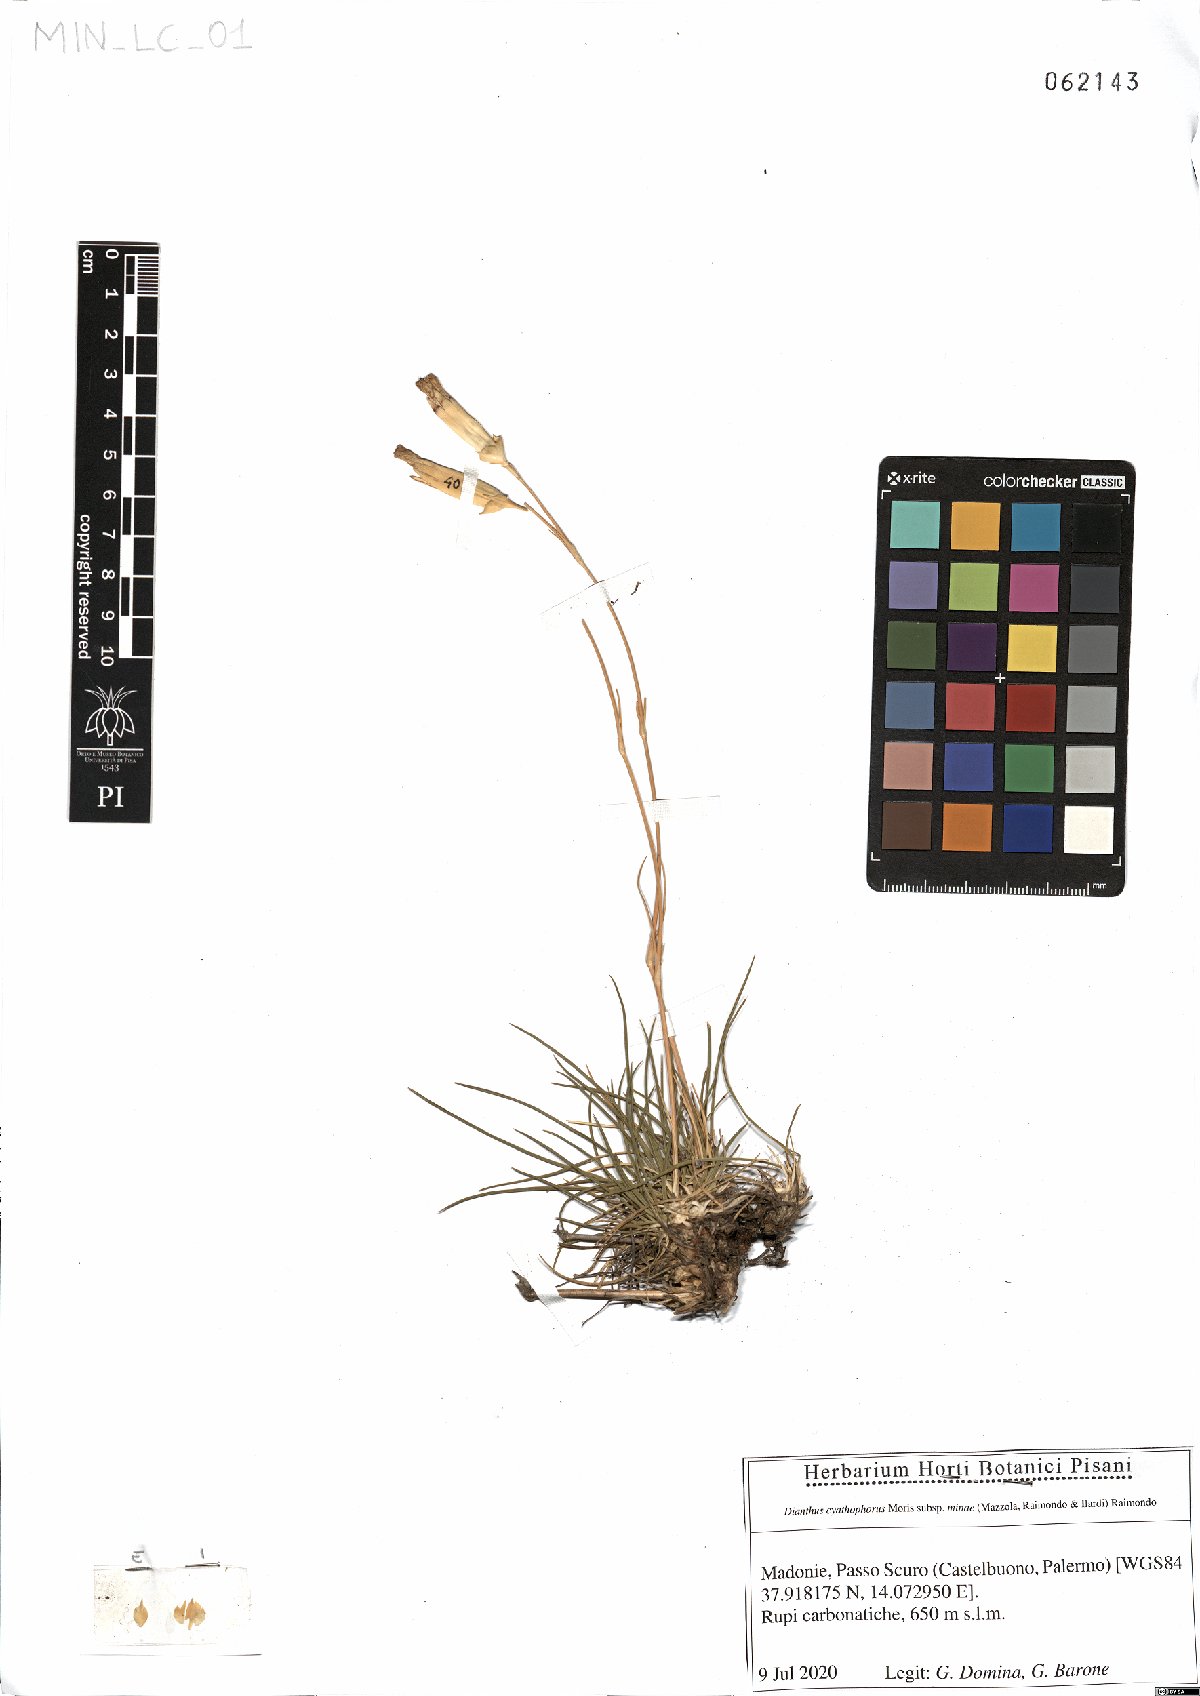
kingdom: Plantae
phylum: Tracheophyta
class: Magnoliopsida
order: Caryophyllales
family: Caryophyllaceae
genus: Dianthus
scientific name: Dianthus siculus
